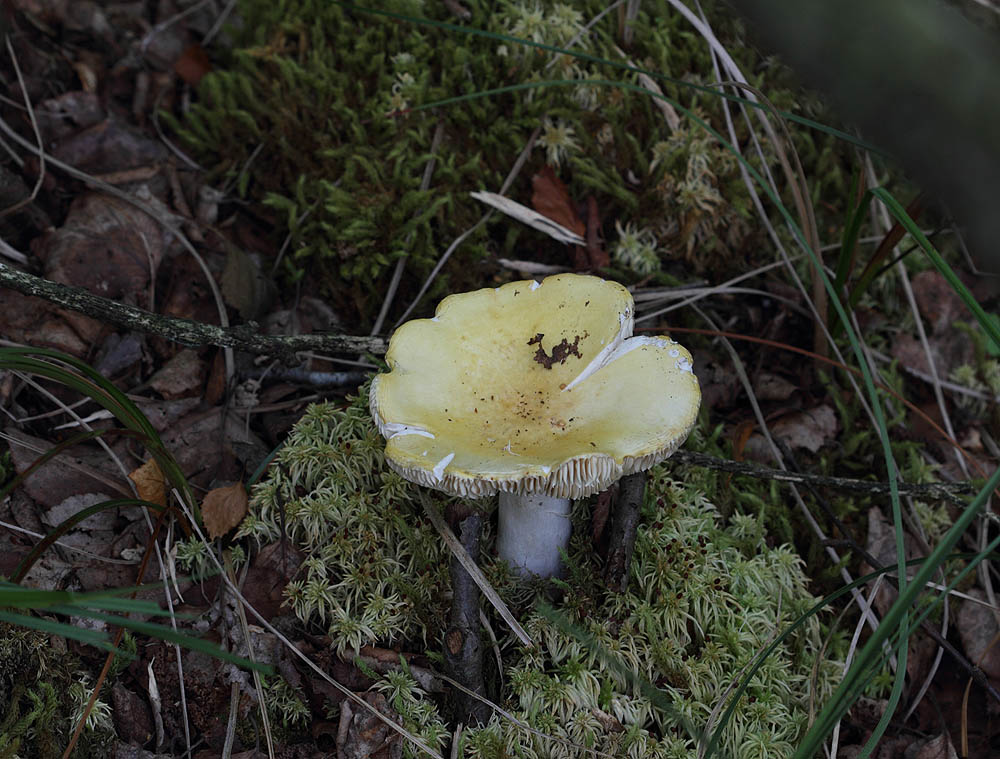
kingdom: Fungi
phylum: Basidiomycota
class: Agaricomycetes
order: Russulales
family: Russulaceae
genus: Russula
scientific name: Russula claroflava
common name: birke-skørhat
